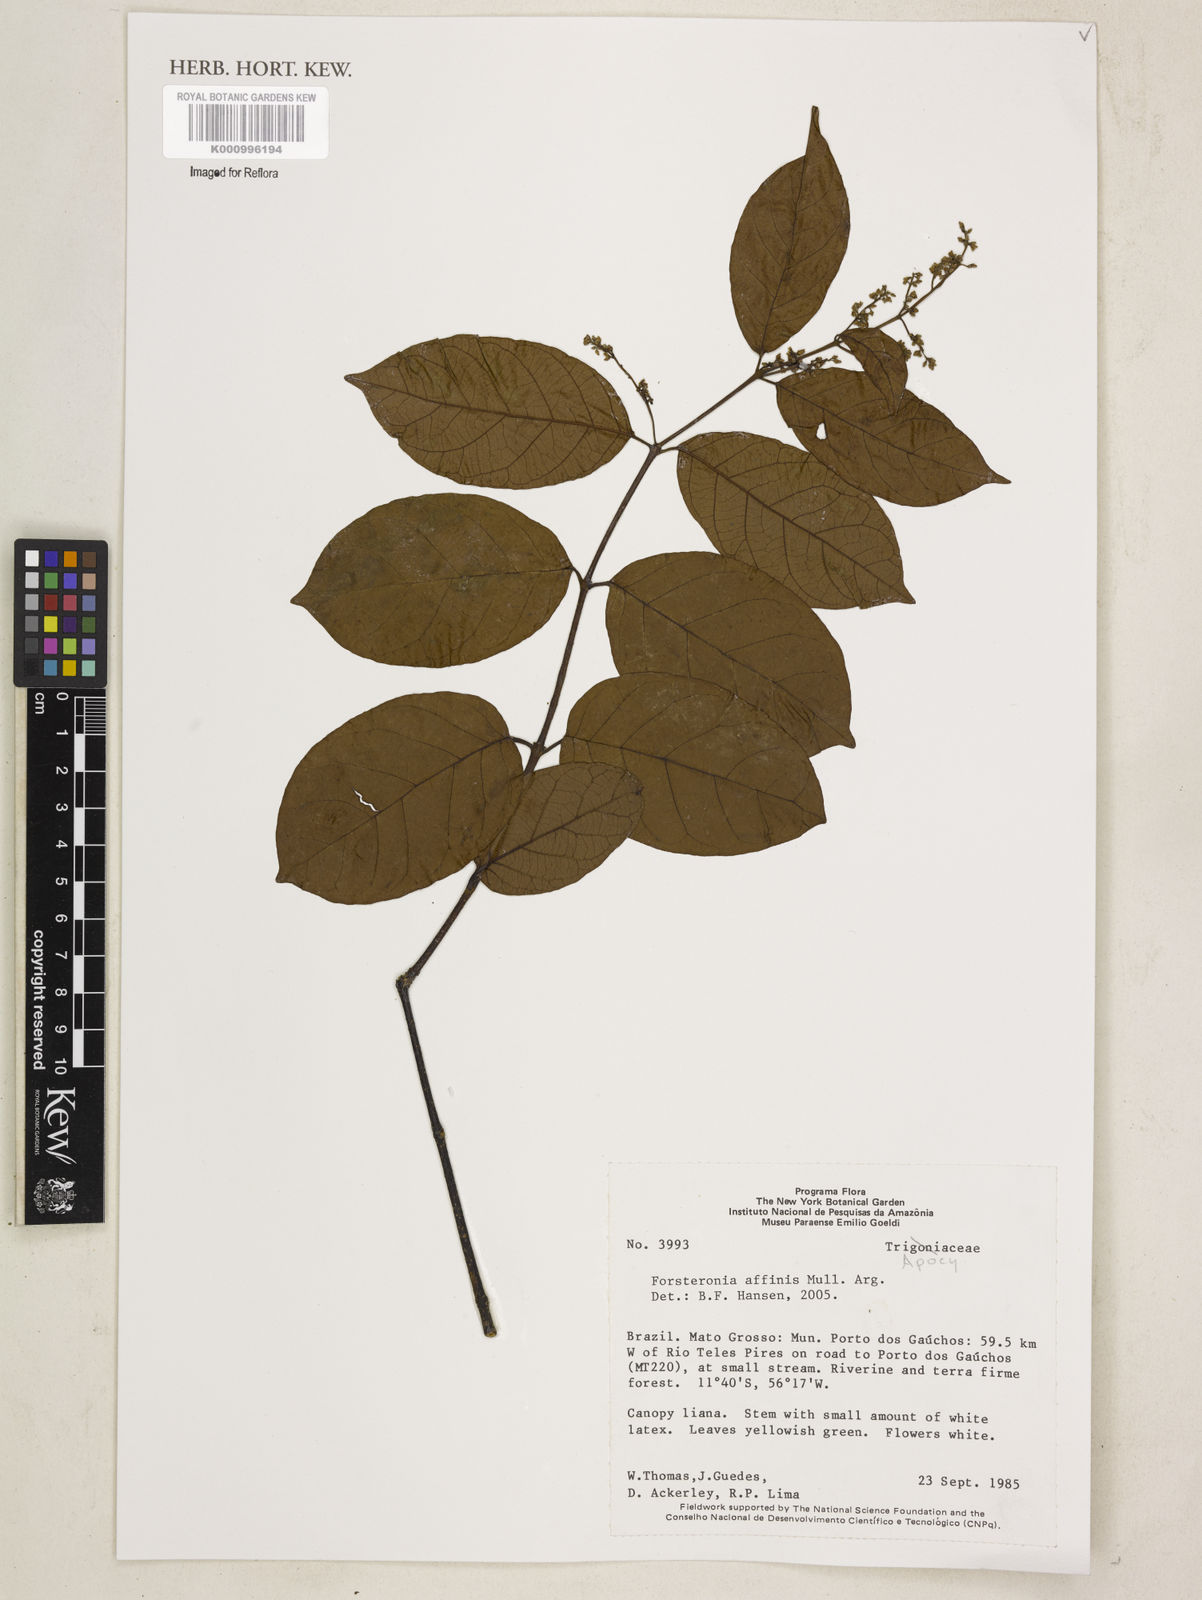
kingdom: Plantae
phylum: Tracheophyta
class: Magnoliopsida
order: Gentianales
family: Apocynaceae
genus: Forsteronia
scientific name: Forsteronia
